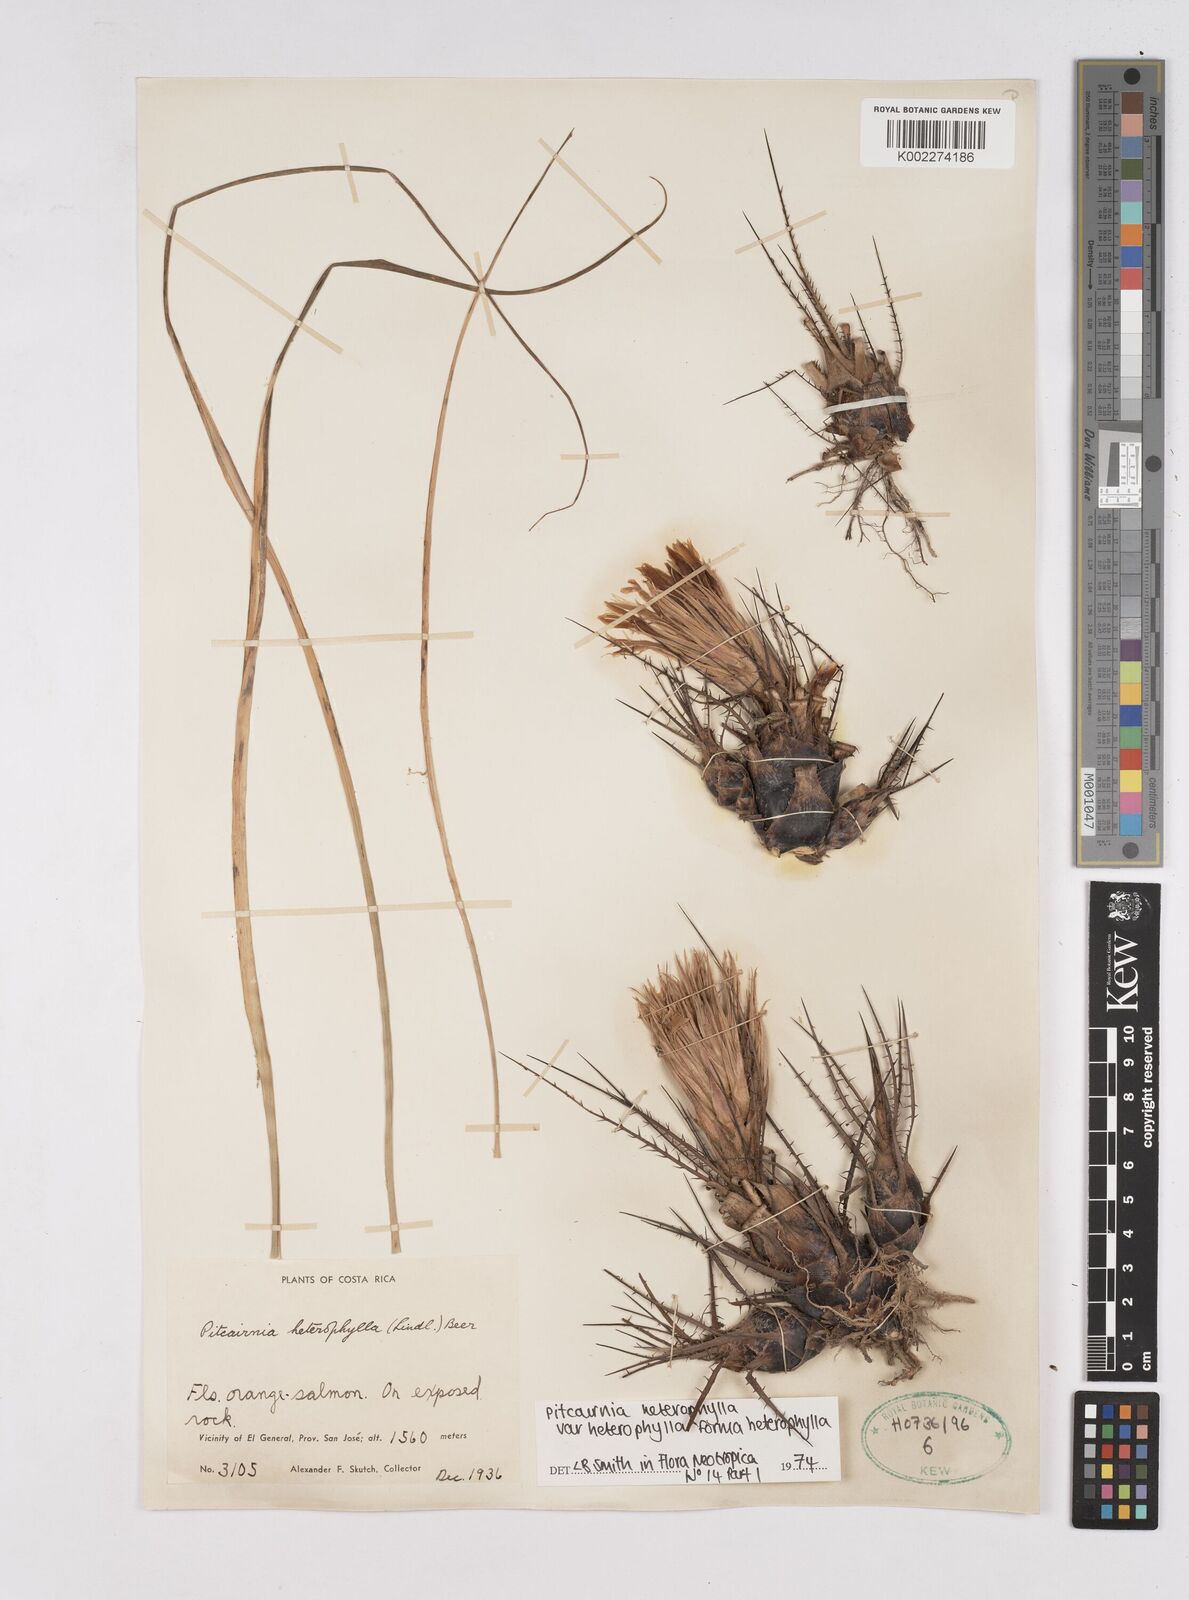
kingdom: Plantae
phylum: Tracheophyta
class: Liliopsida
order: Poales
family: Bromeliaceae
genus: Pitcairnia
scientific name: Pitcairnia heterophylla
